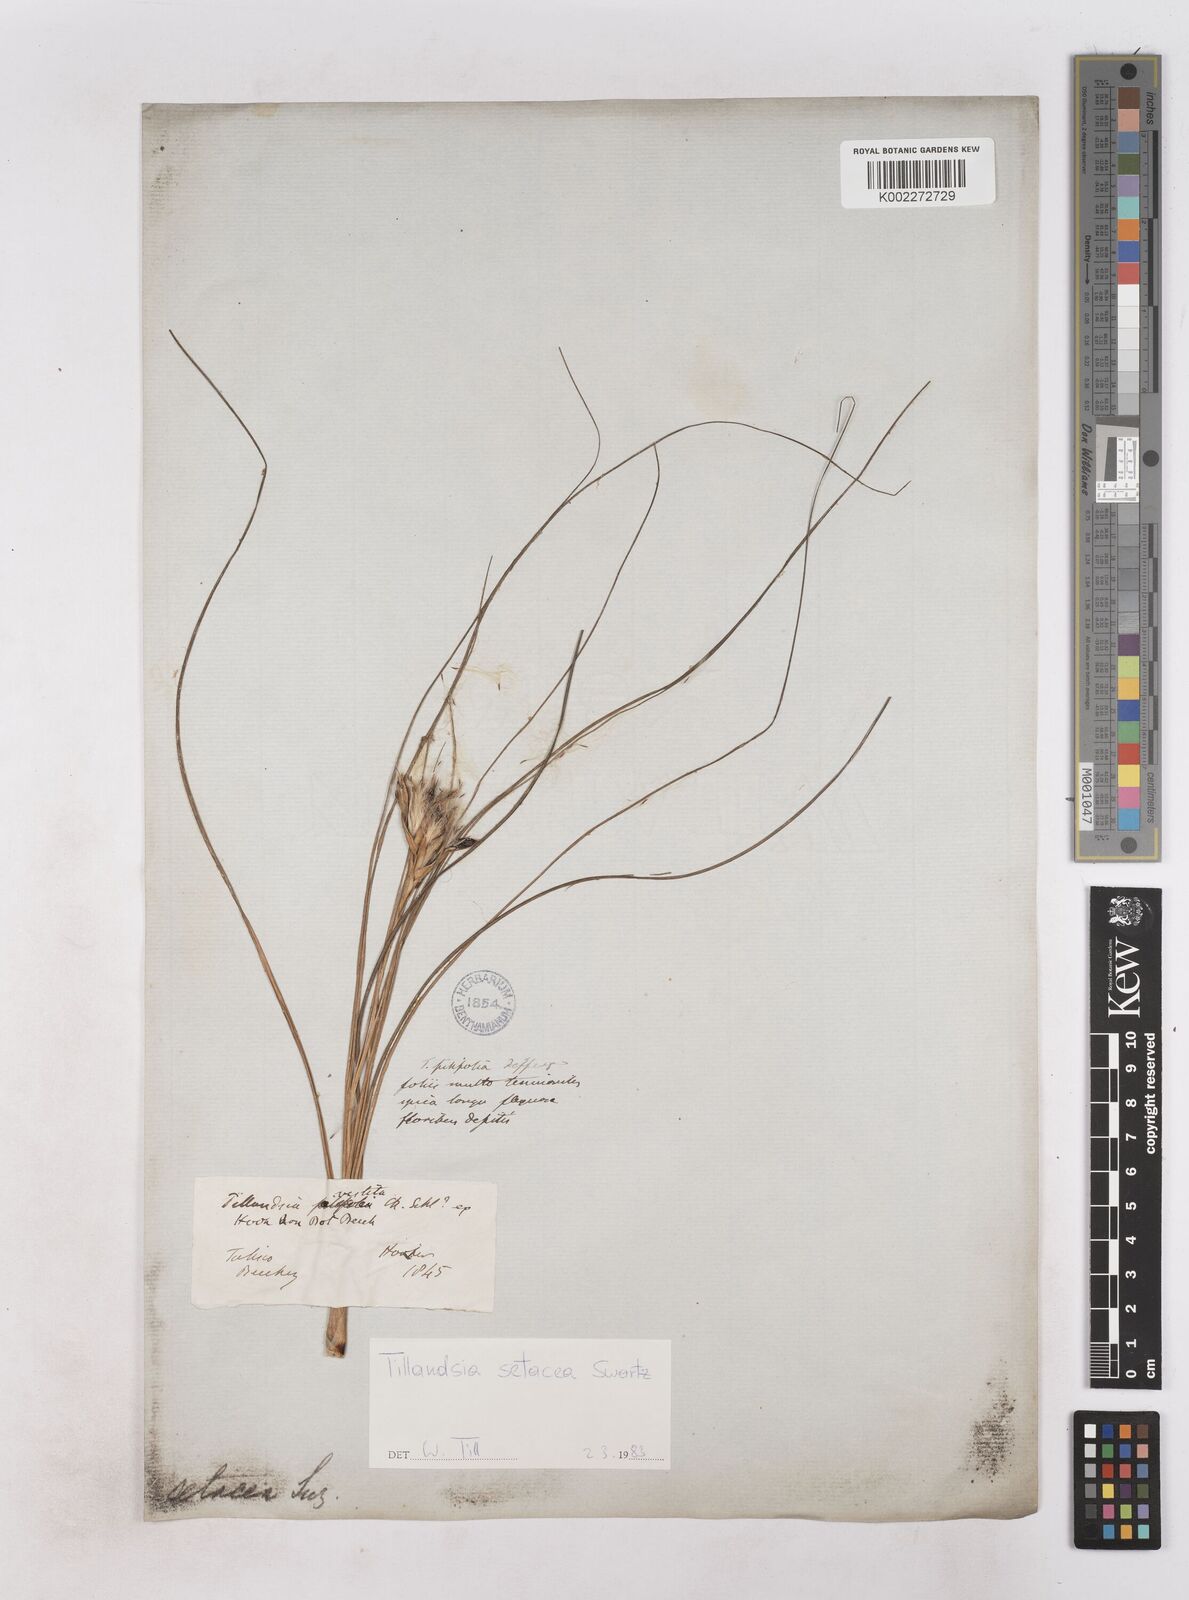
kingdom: Plantae
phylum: Tracheophyta
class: Liliopsida
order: Poales
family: Bromeliaceae
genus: Tillandsia
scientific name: Tillandsia setacea
